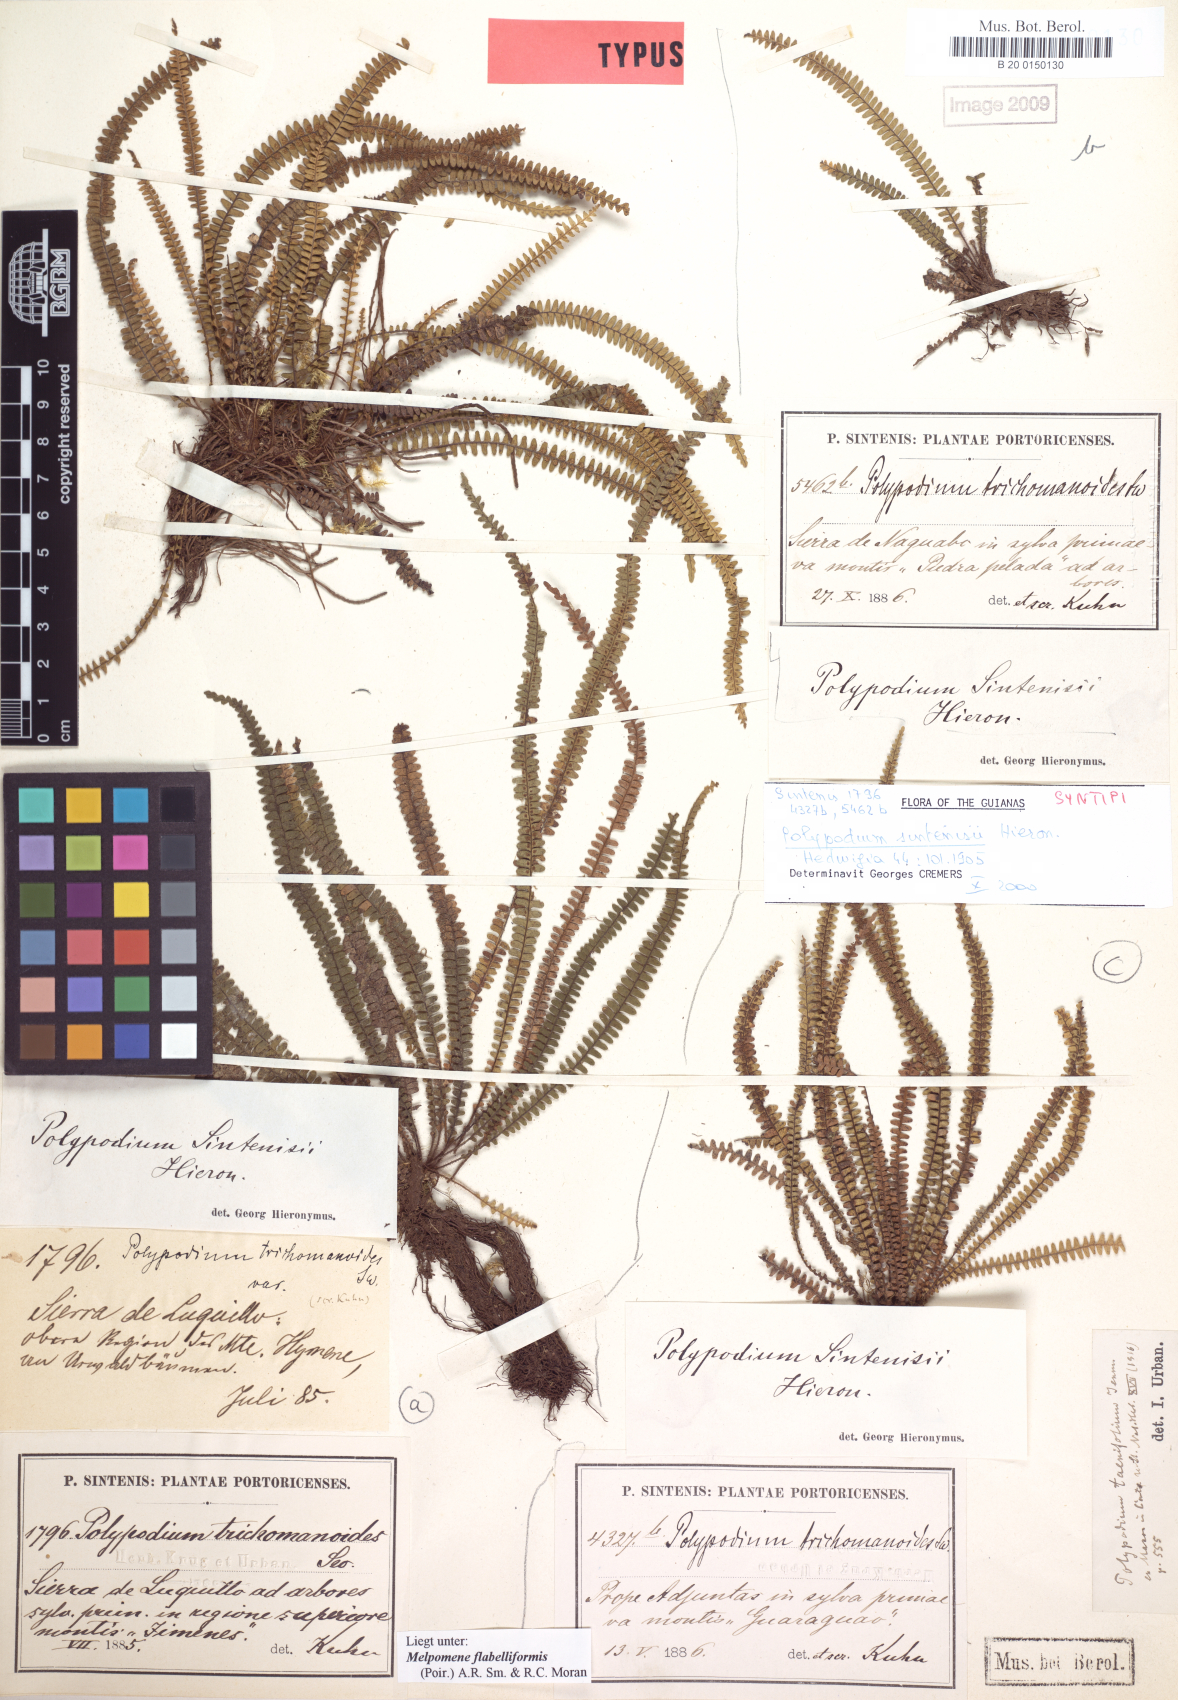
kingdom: Plantae
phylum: Tracheophyta
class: Polypodiopsida
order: Polypodiales
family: Polypodiaceae
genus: Moranopteris
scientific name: Moranopteris taenifolia
